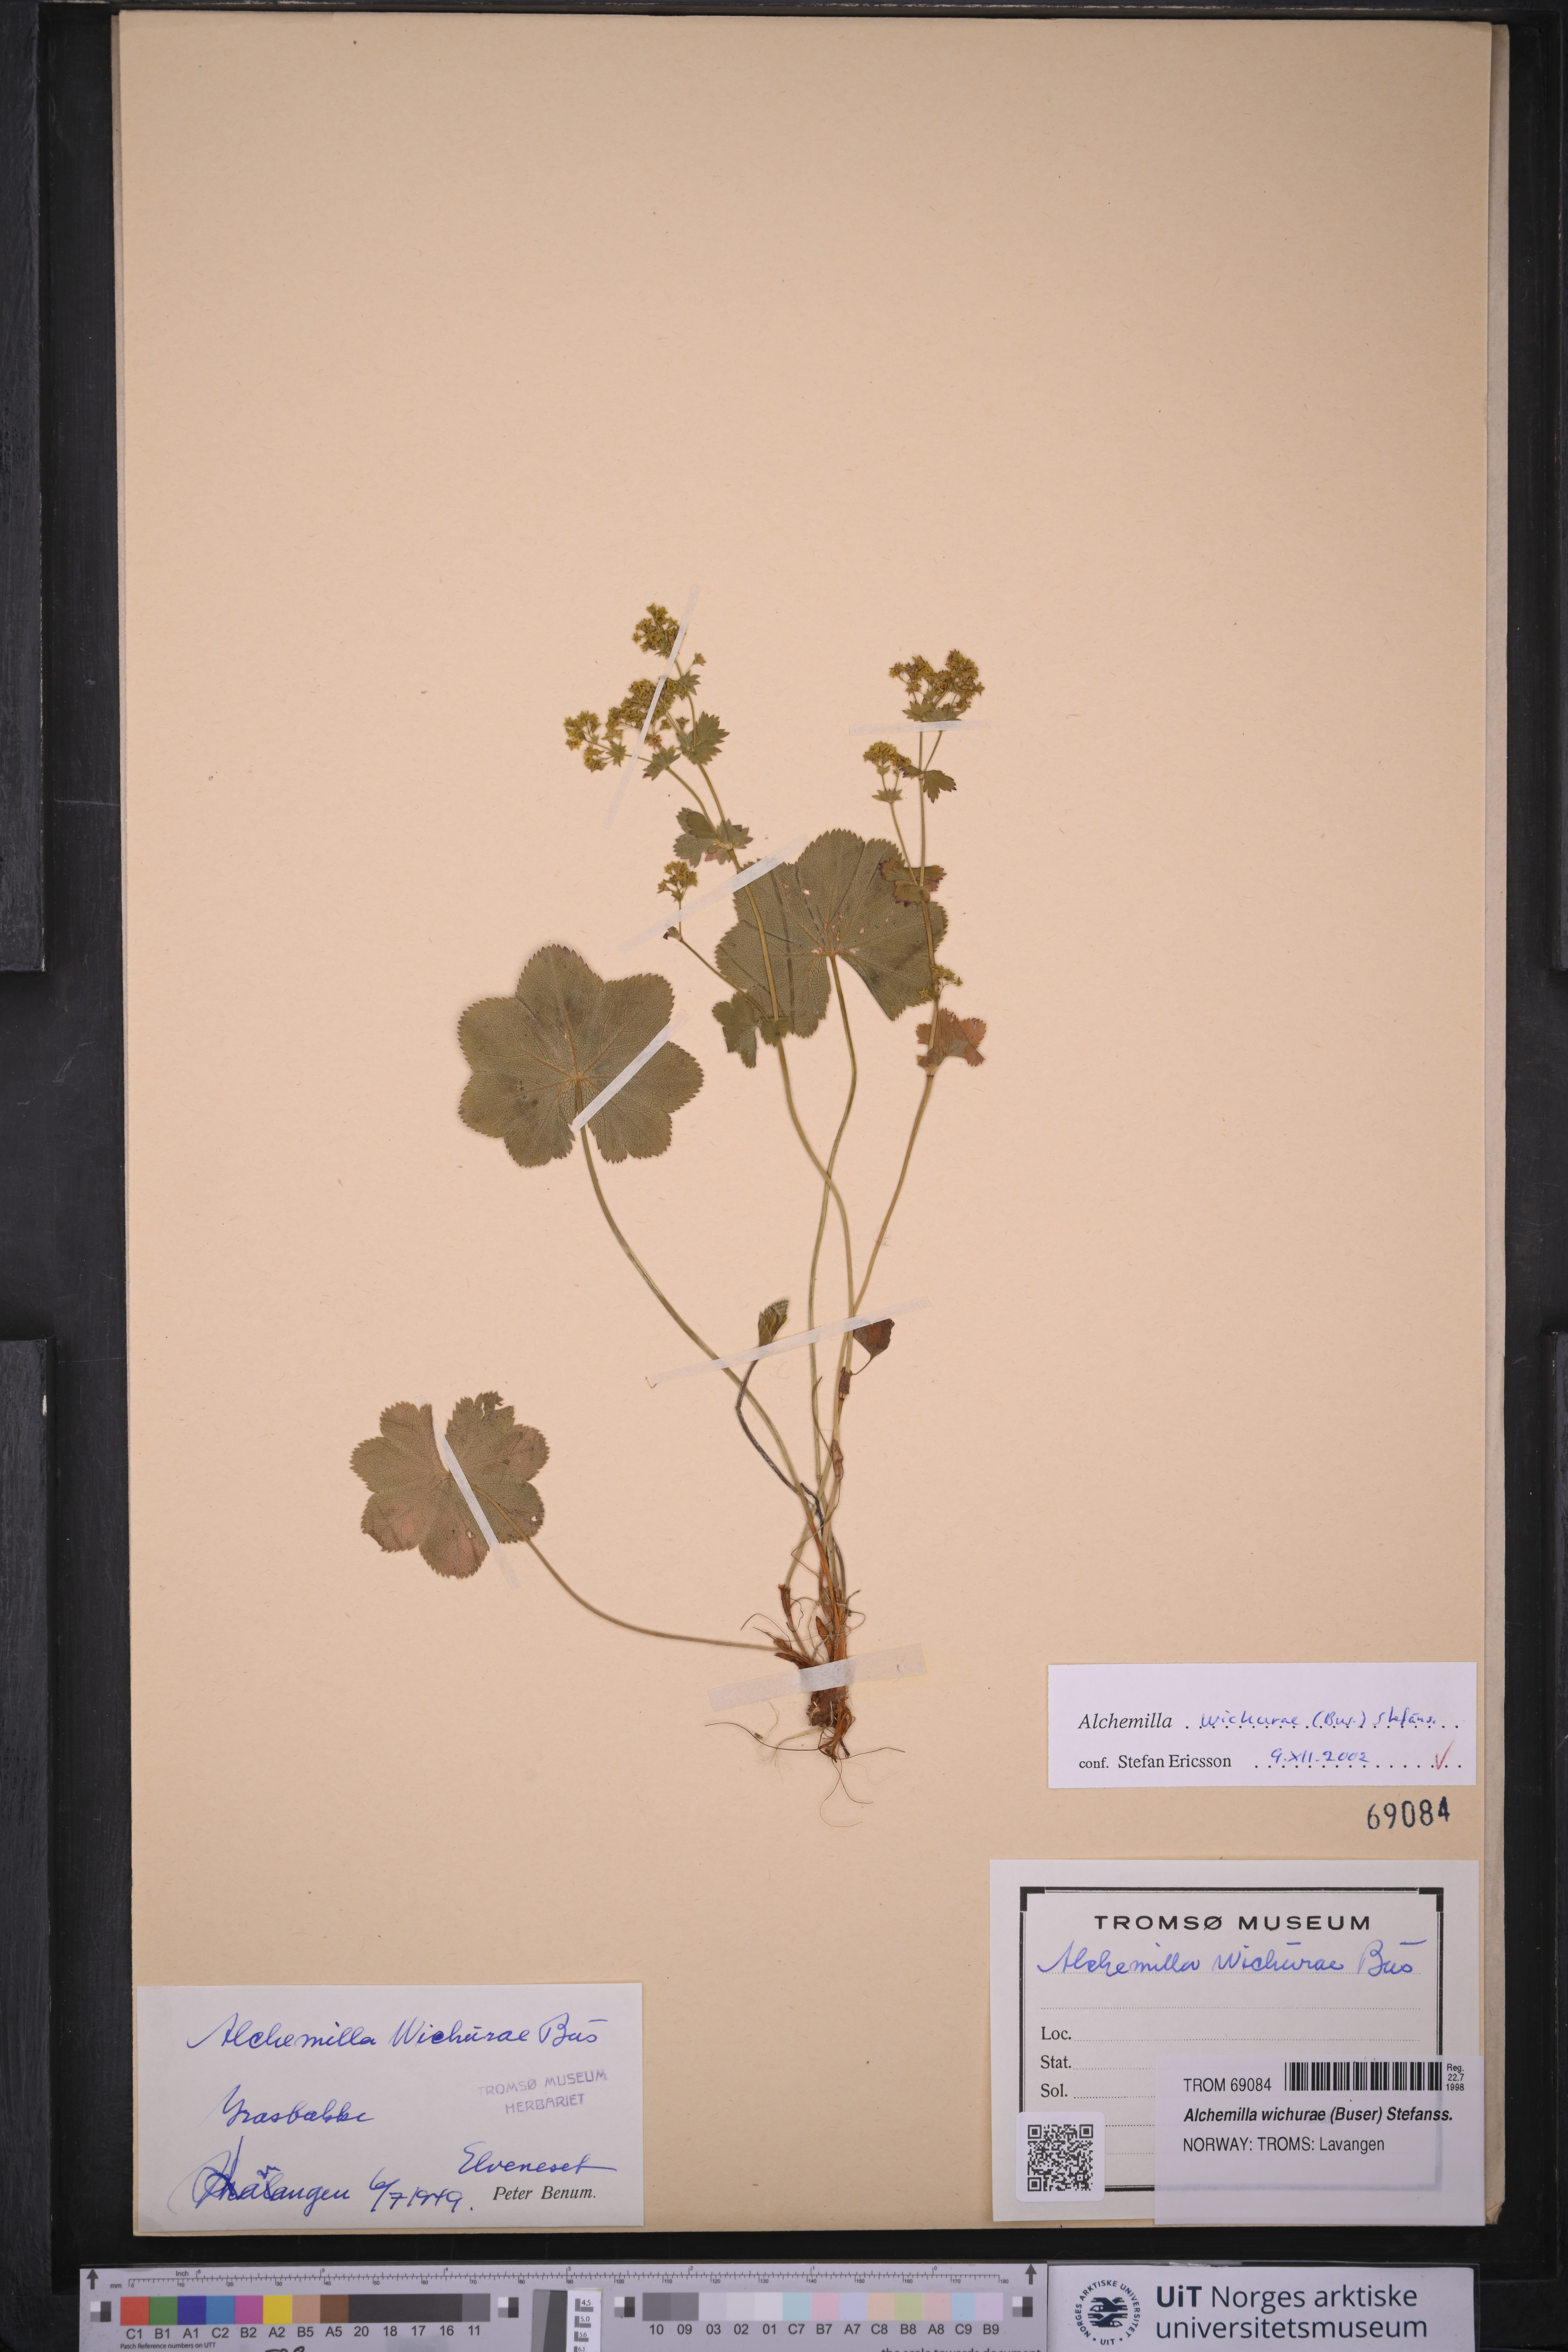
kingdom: Plantae
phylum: Tracheophyta
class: Magnoliopsida
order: Rosales
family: Rosaceae
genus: Alchemilla
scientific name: Alchemilla wichurae
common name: Rock lady's mantle
